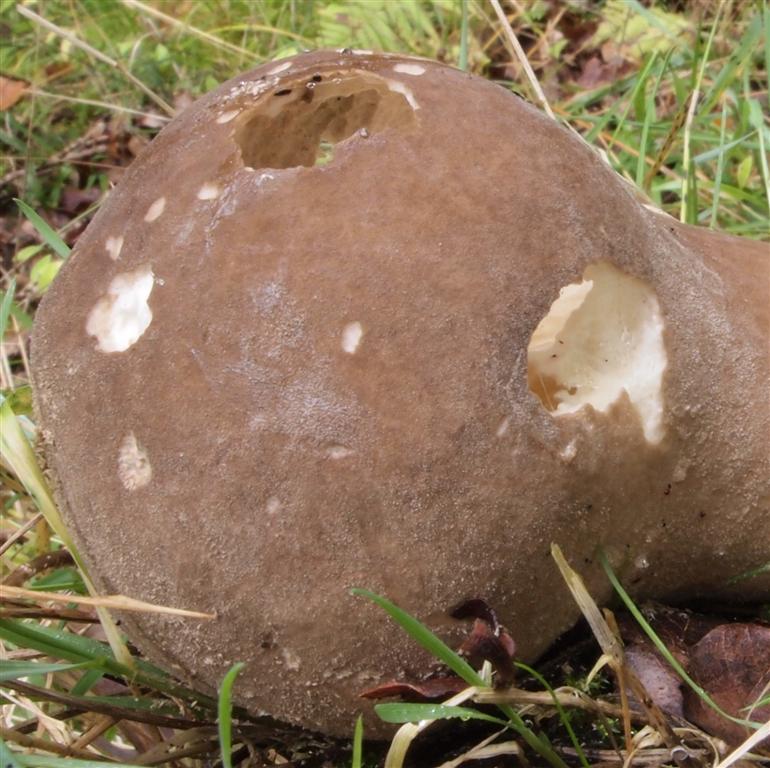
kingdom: Fungi
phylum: Basidiomycota
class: Agaricomycetes
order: Agaricales
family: Lycoperdaceae
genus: Lycoperdon
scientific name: Lycoperdon excipuliforme
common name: højstokket støvbold
